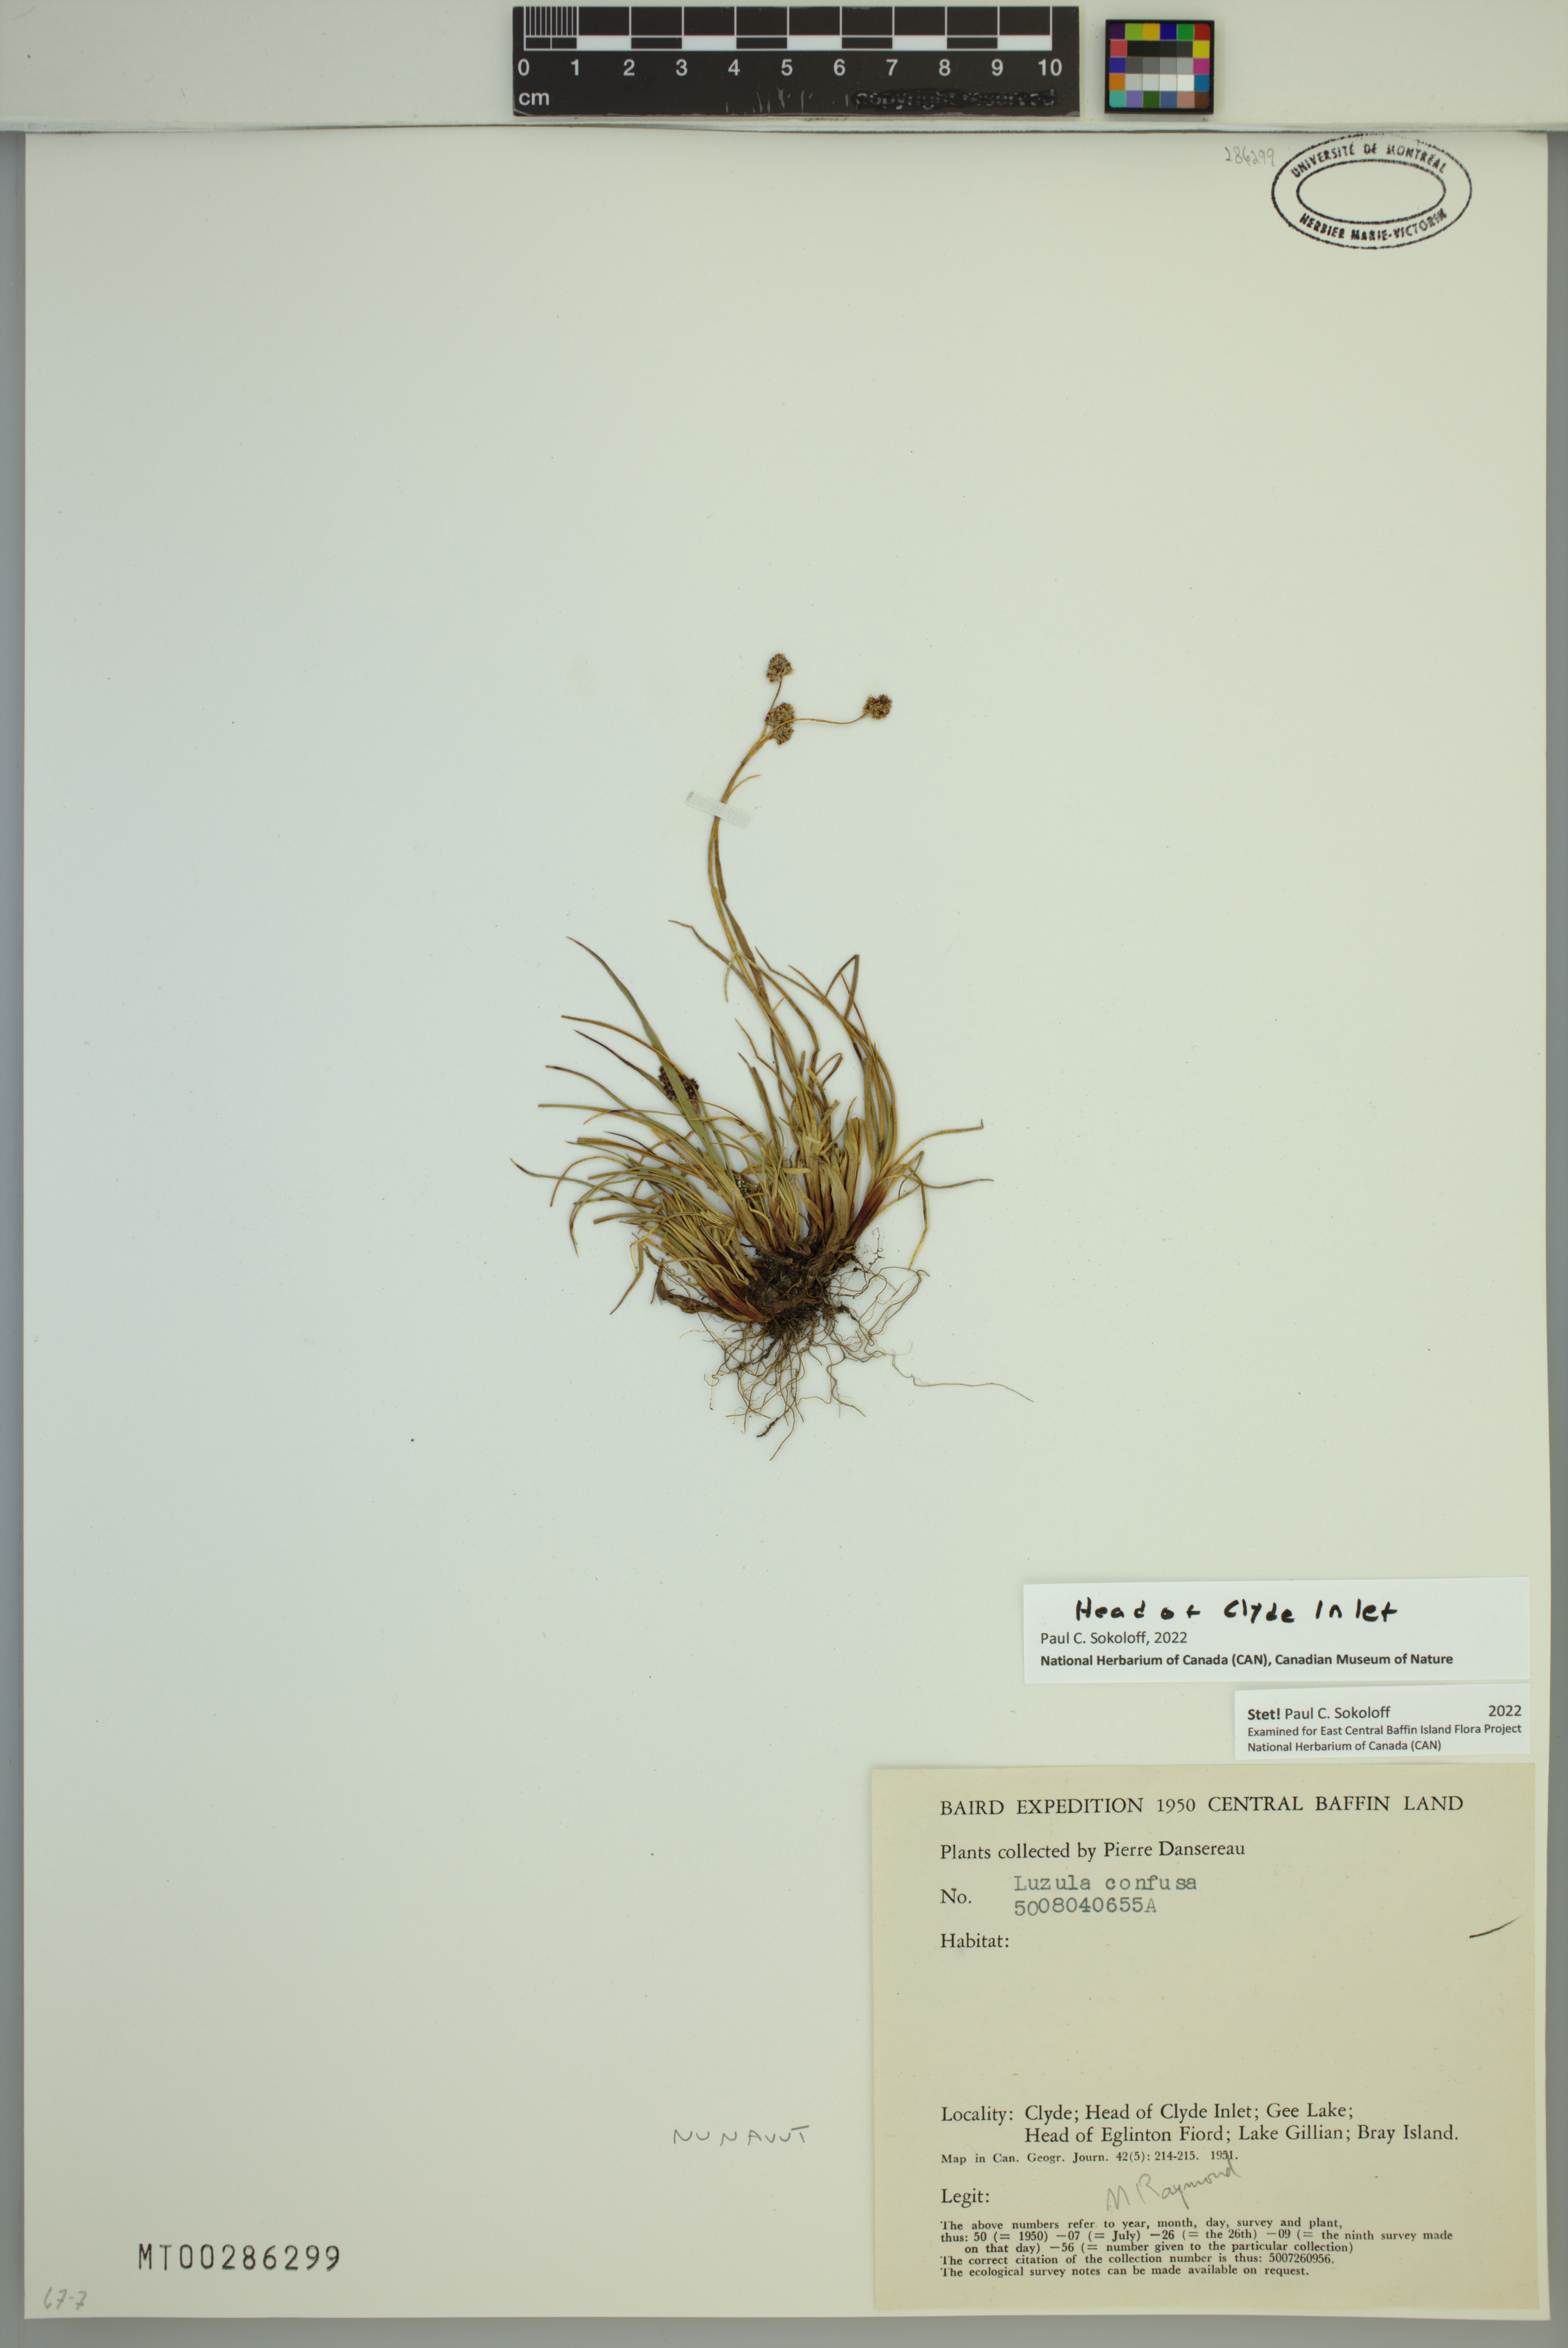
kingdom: Plantae
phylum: Tracheophyta
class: Liliopsida
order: Poales
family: Juncaceae
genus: Luzula
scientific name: Luzula confusa
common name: Northern wood rush
